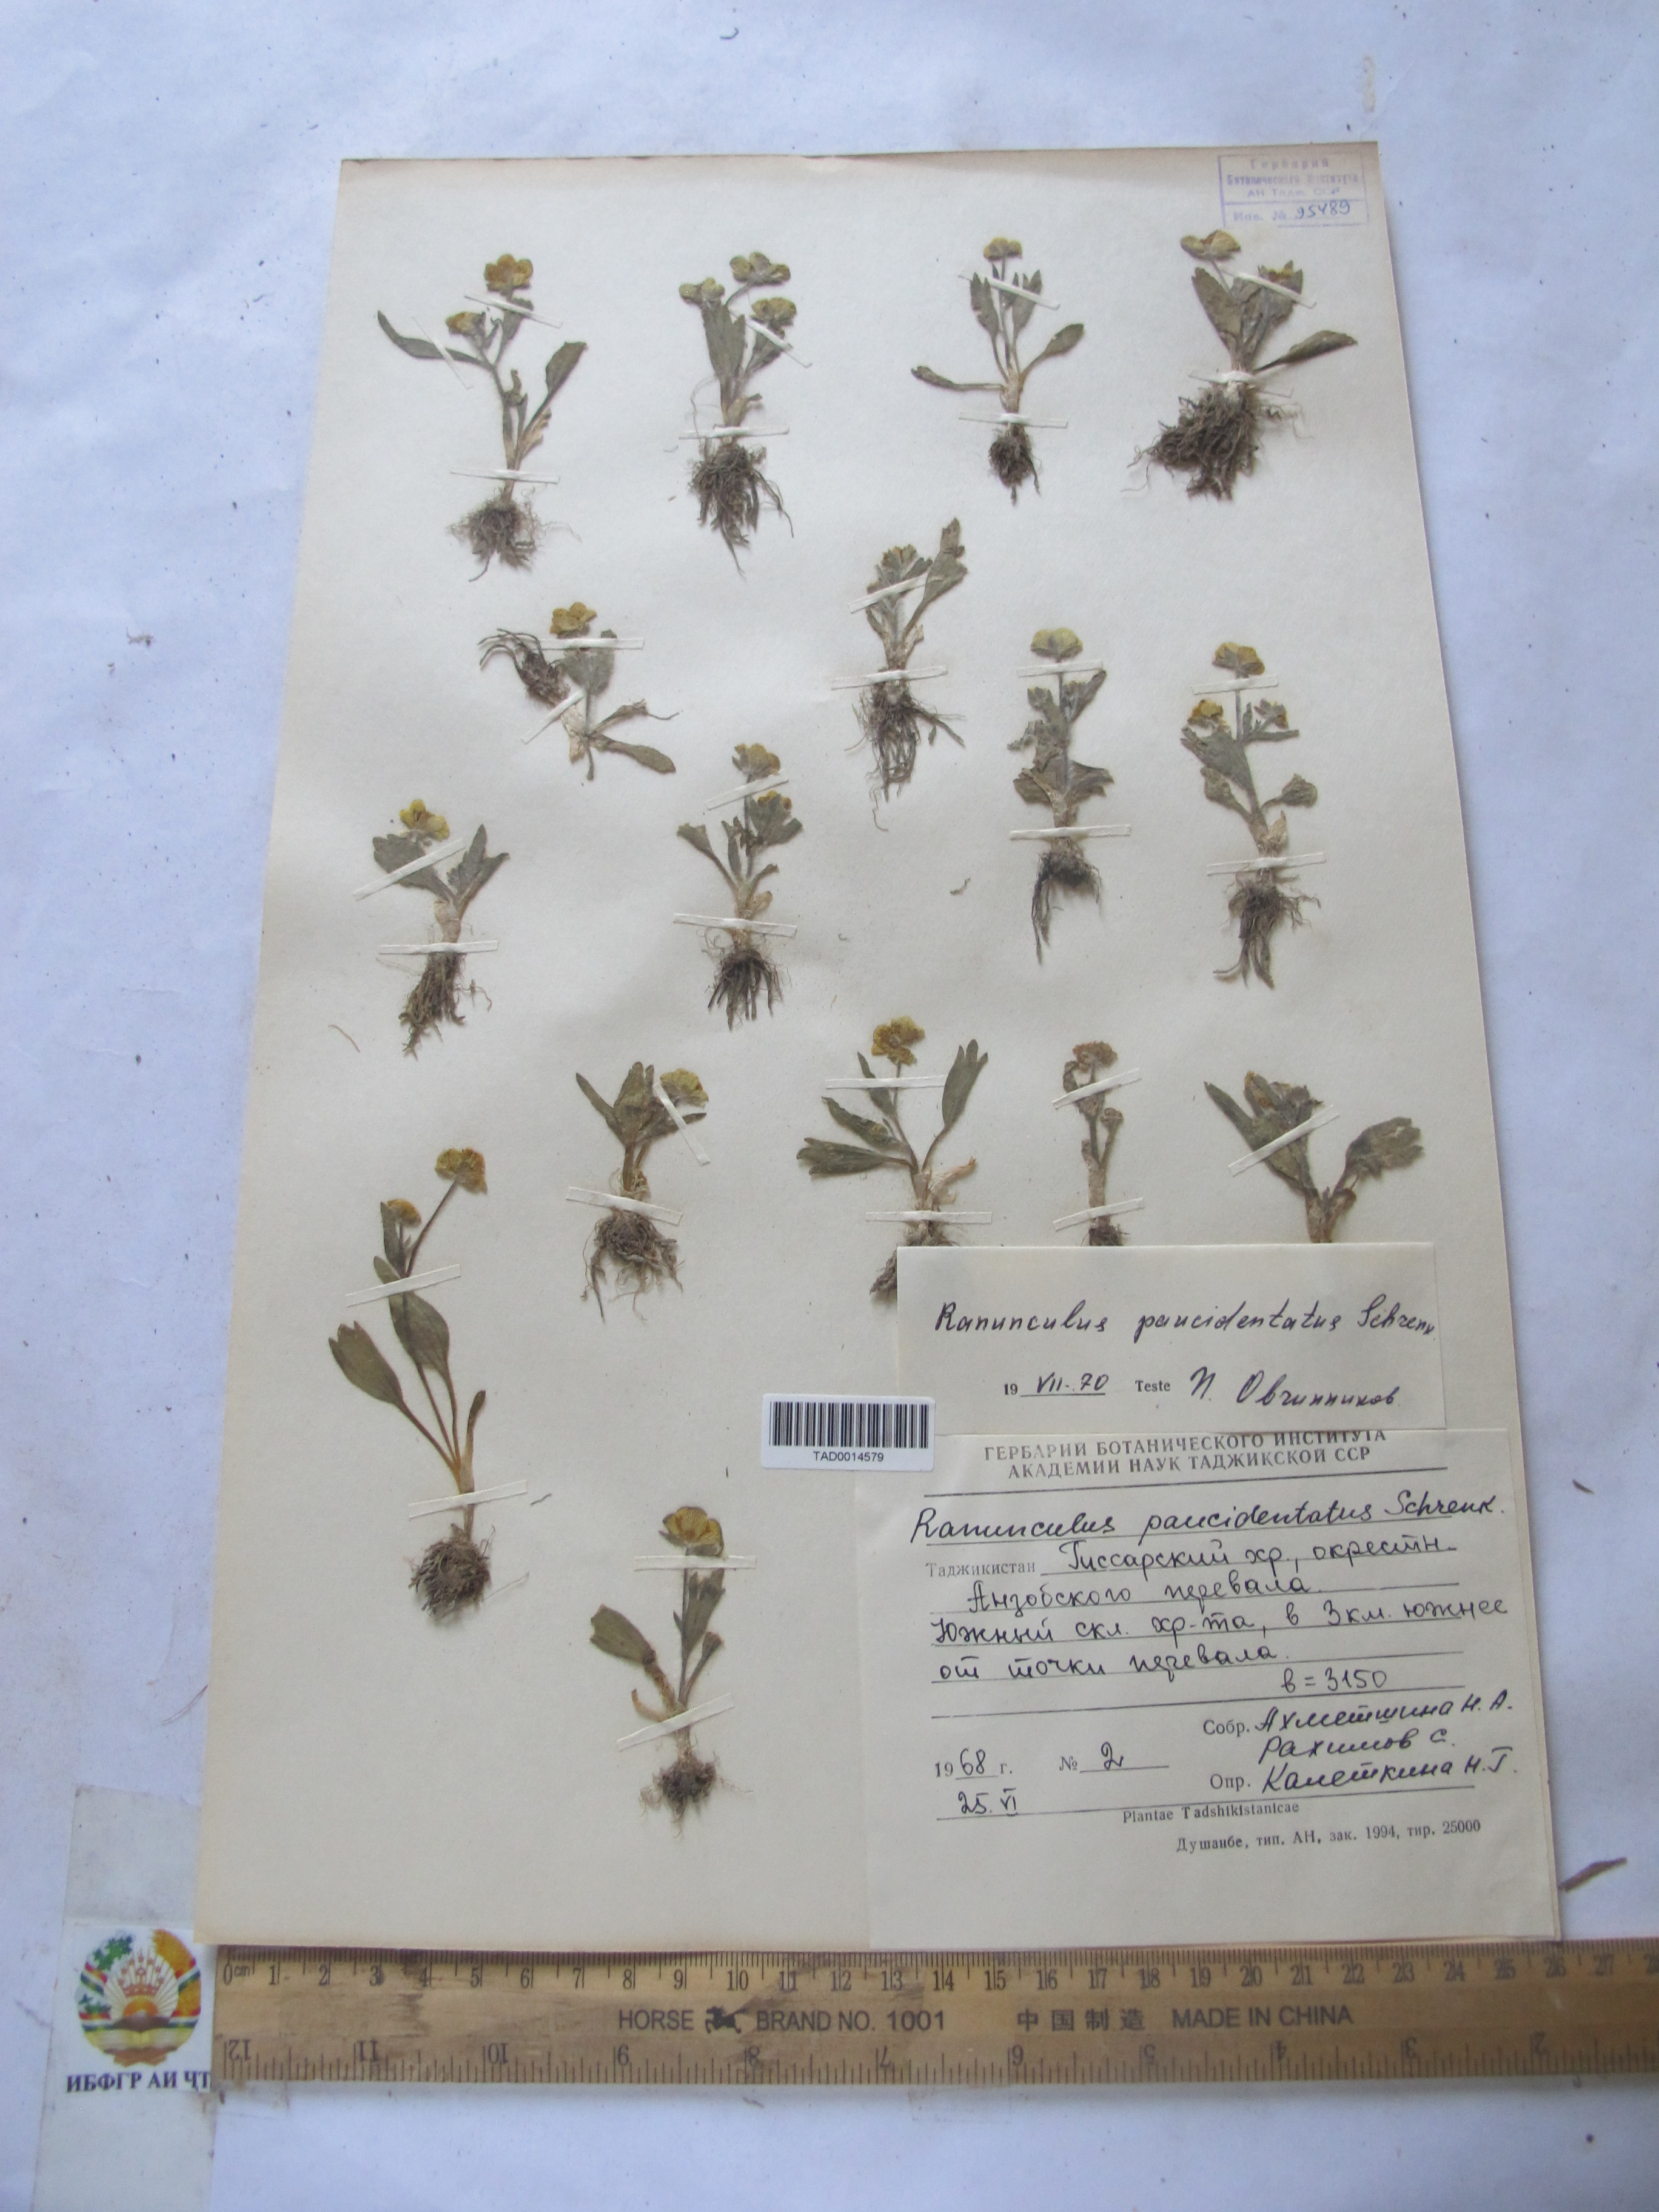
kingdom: Plantae
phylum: Tracheophyta
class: Magnoliopsida
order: Ranunculales
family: Ranunculaceae
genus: Ranunculus
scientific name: Ranunculus paucidentatus
